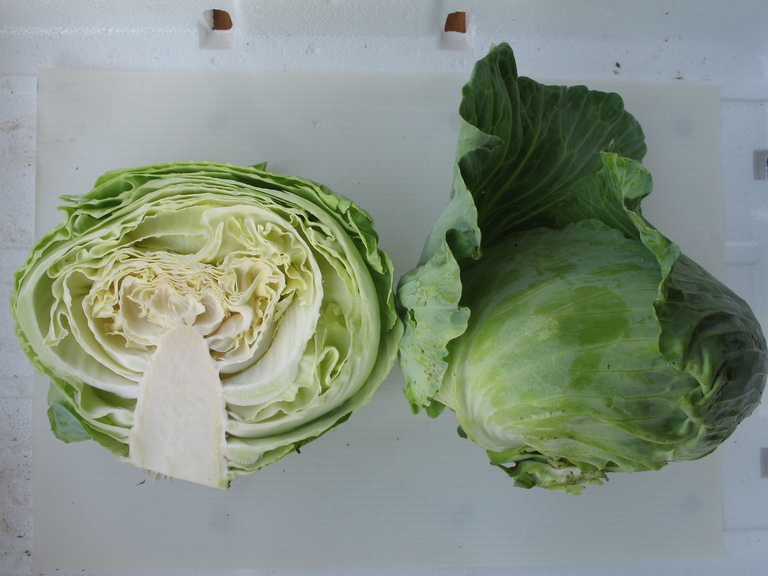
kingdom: Plantae
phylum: Tracheophyta
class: Magnoliopsida
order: Brassicales
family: Brassicaceae
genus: Brassica
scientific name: Brassica oleracea
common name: Cabbage
